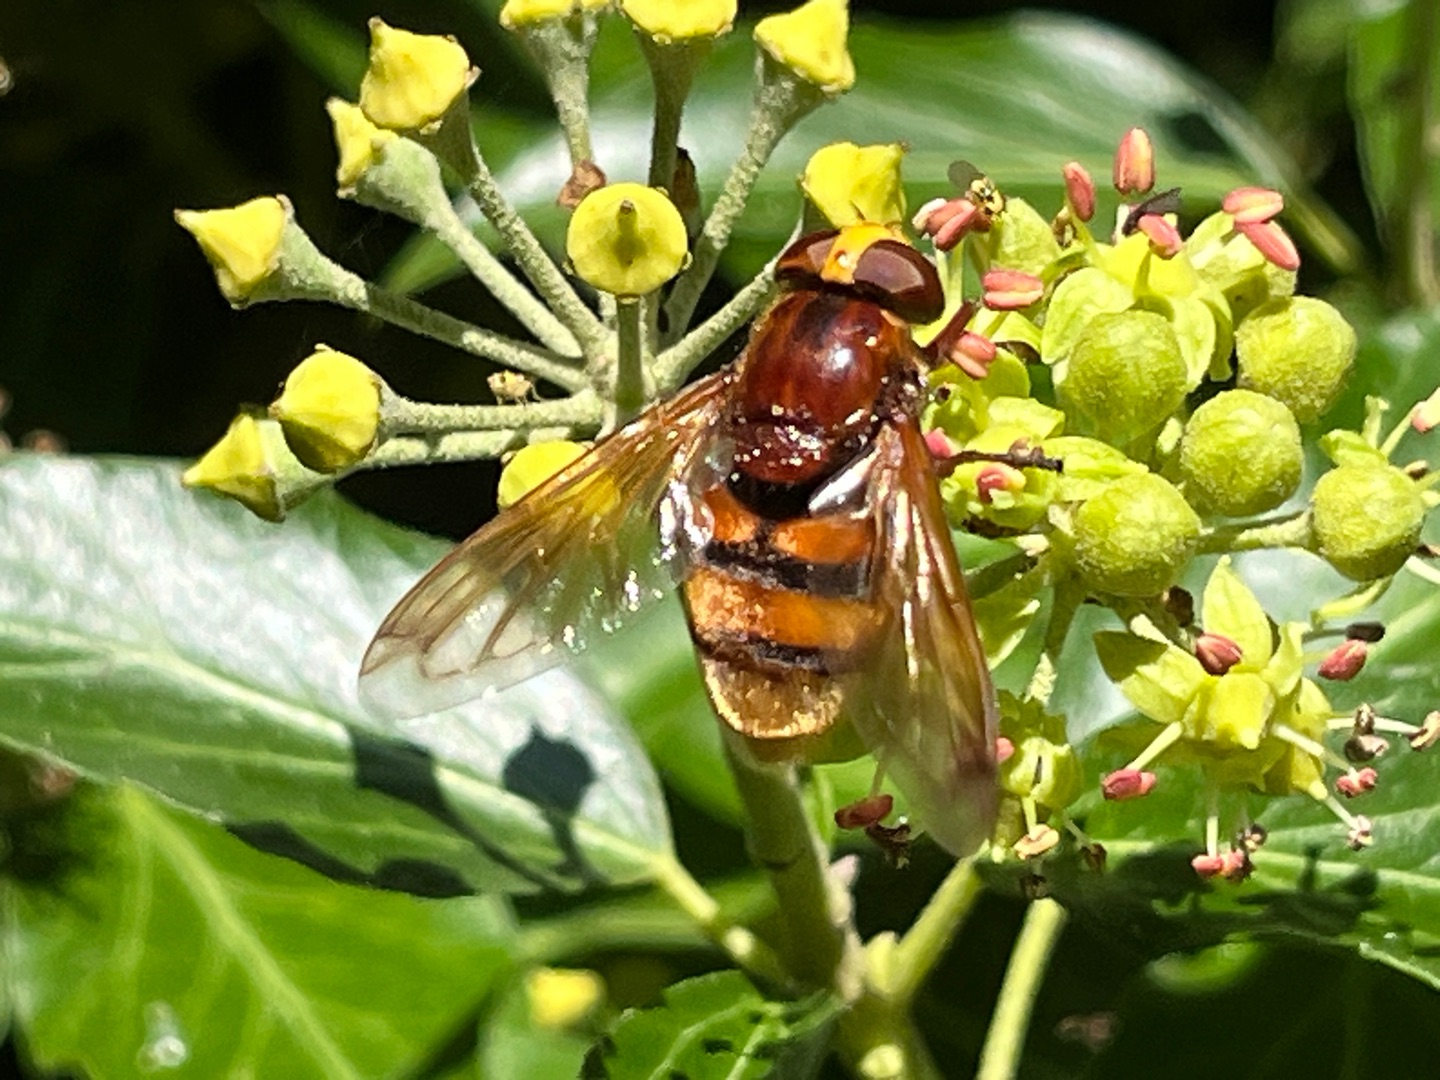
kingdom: Animalia
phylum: Arthropoda
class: Insecta
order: Diptera
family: Syrphidae
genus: Volucella
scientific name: Volucella zonaria
